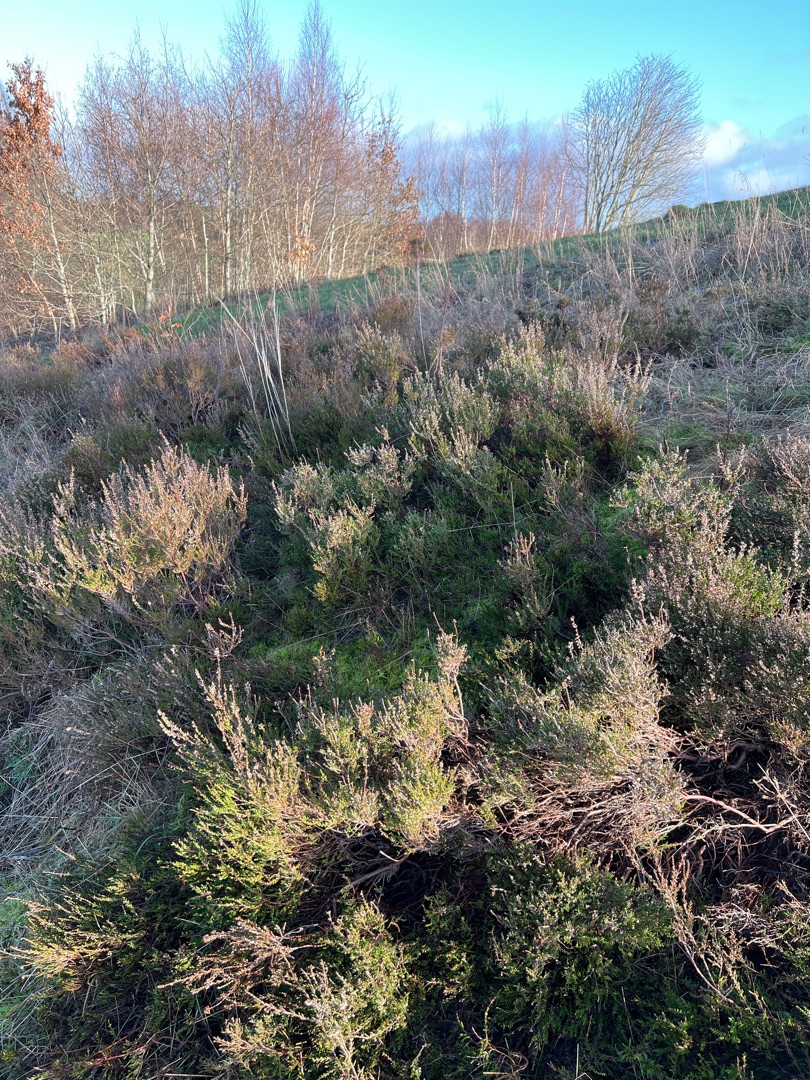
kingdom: Plantae
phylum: Tracheophyta
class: Magnoliopsida
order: Ericales
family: Ericaceae
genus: Calluna
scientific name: Calluna vulgaris
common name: Hedelyng
